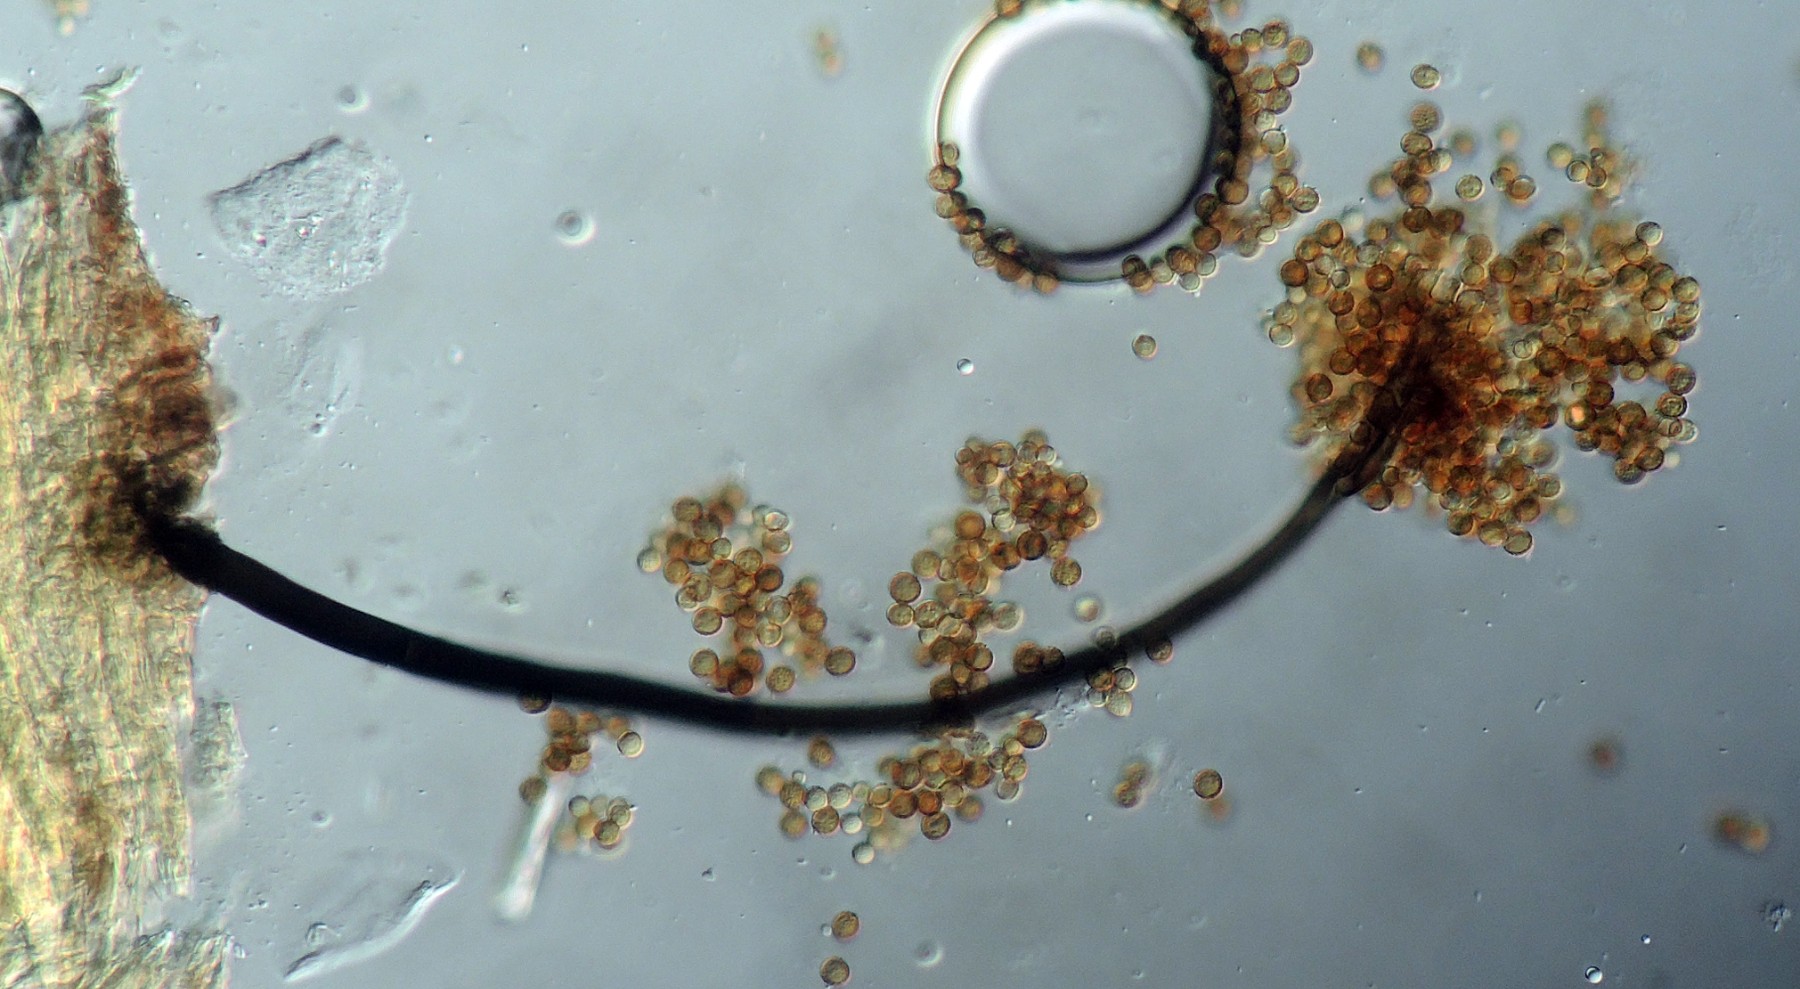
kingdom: Fungi
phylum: Ascomycota
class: Dothideomycetes
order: Pleosporales
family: Periconiaceae
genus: Periconia
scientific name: Periconia minutissima
